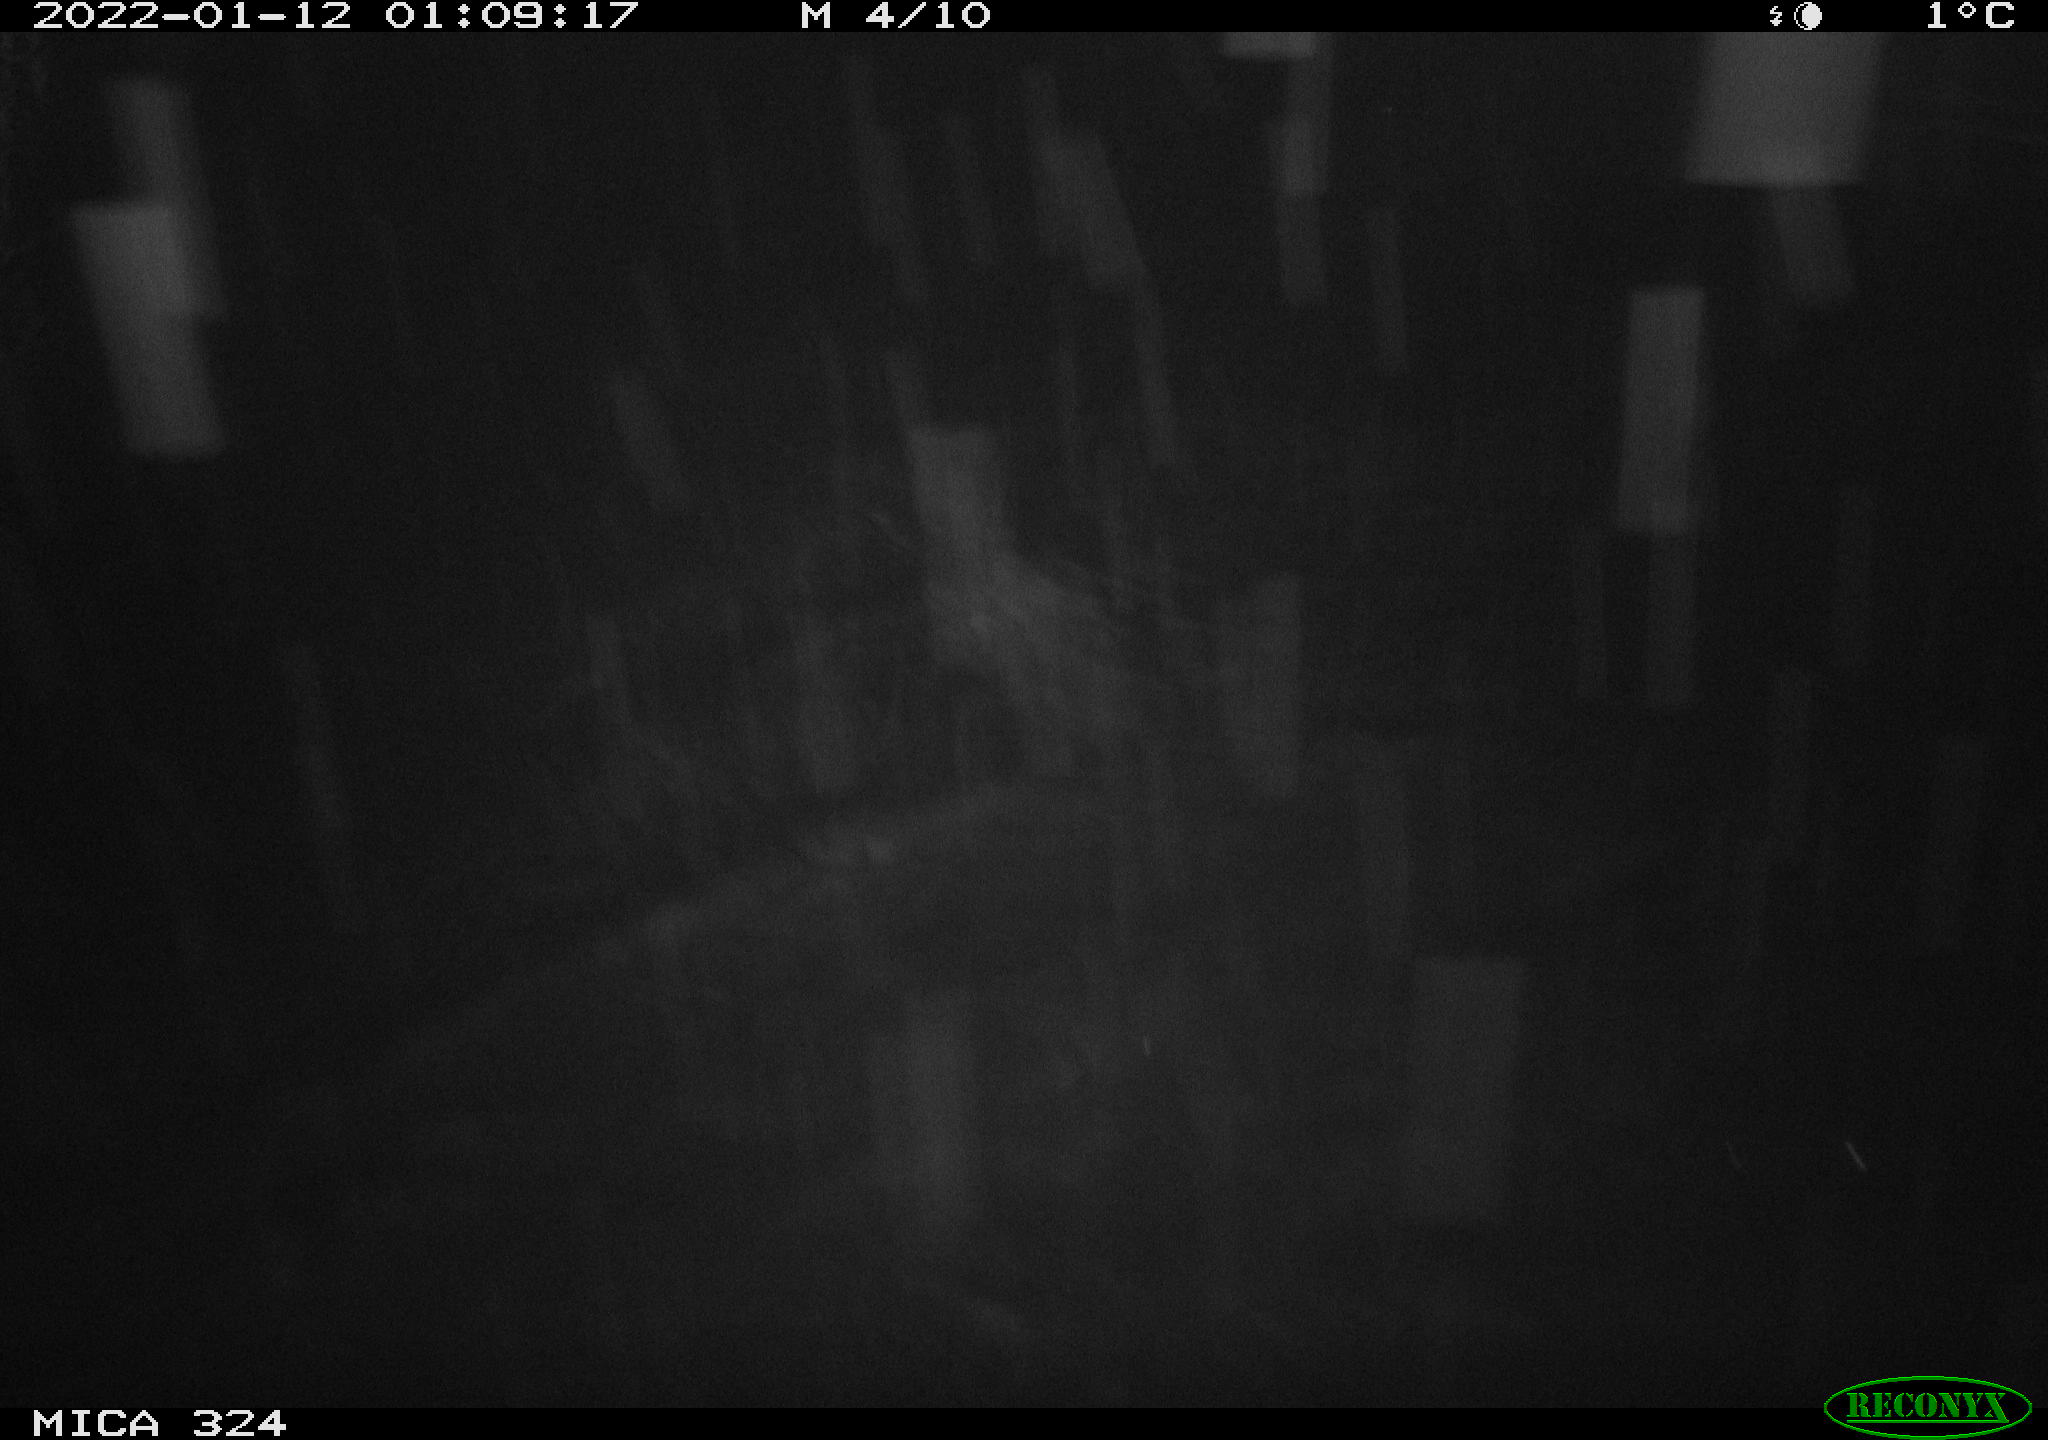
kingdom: Animalia
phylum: Chordata
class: Mammalia
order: Rodentia
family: Cricetidae
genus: Ondatra
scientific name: Ondatra zibethicus
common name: Muskrat
